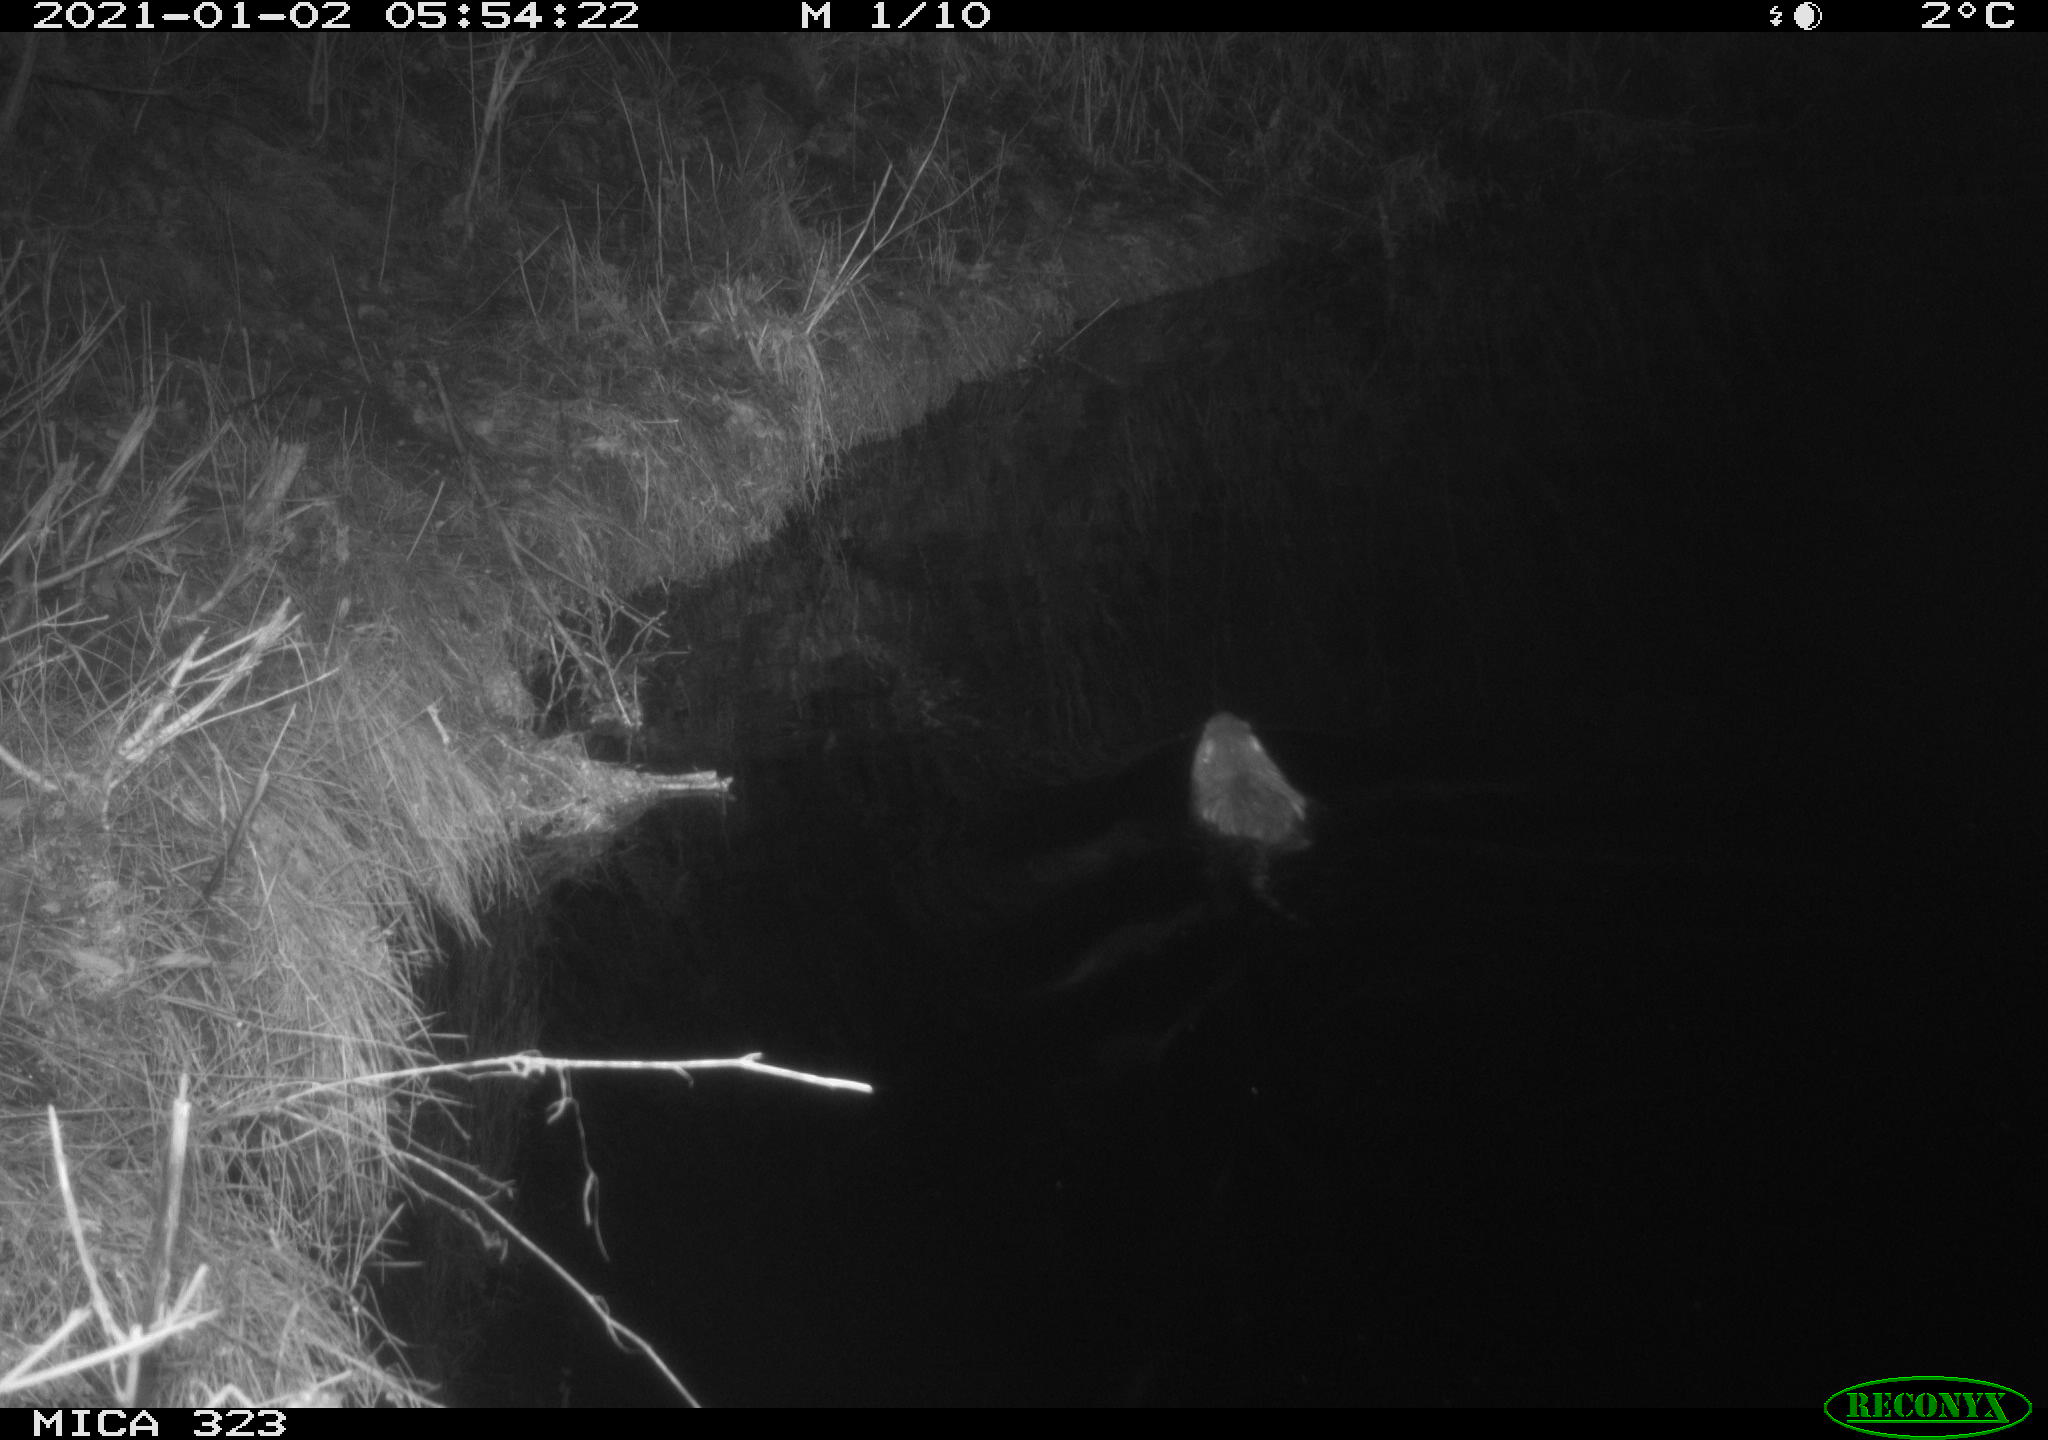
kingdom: Animalia
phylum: Chordata
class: Mammalia
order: Rodentia
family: Myocastoridae
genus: Myocastor
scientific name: Myocastor coypus
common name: Coypu
